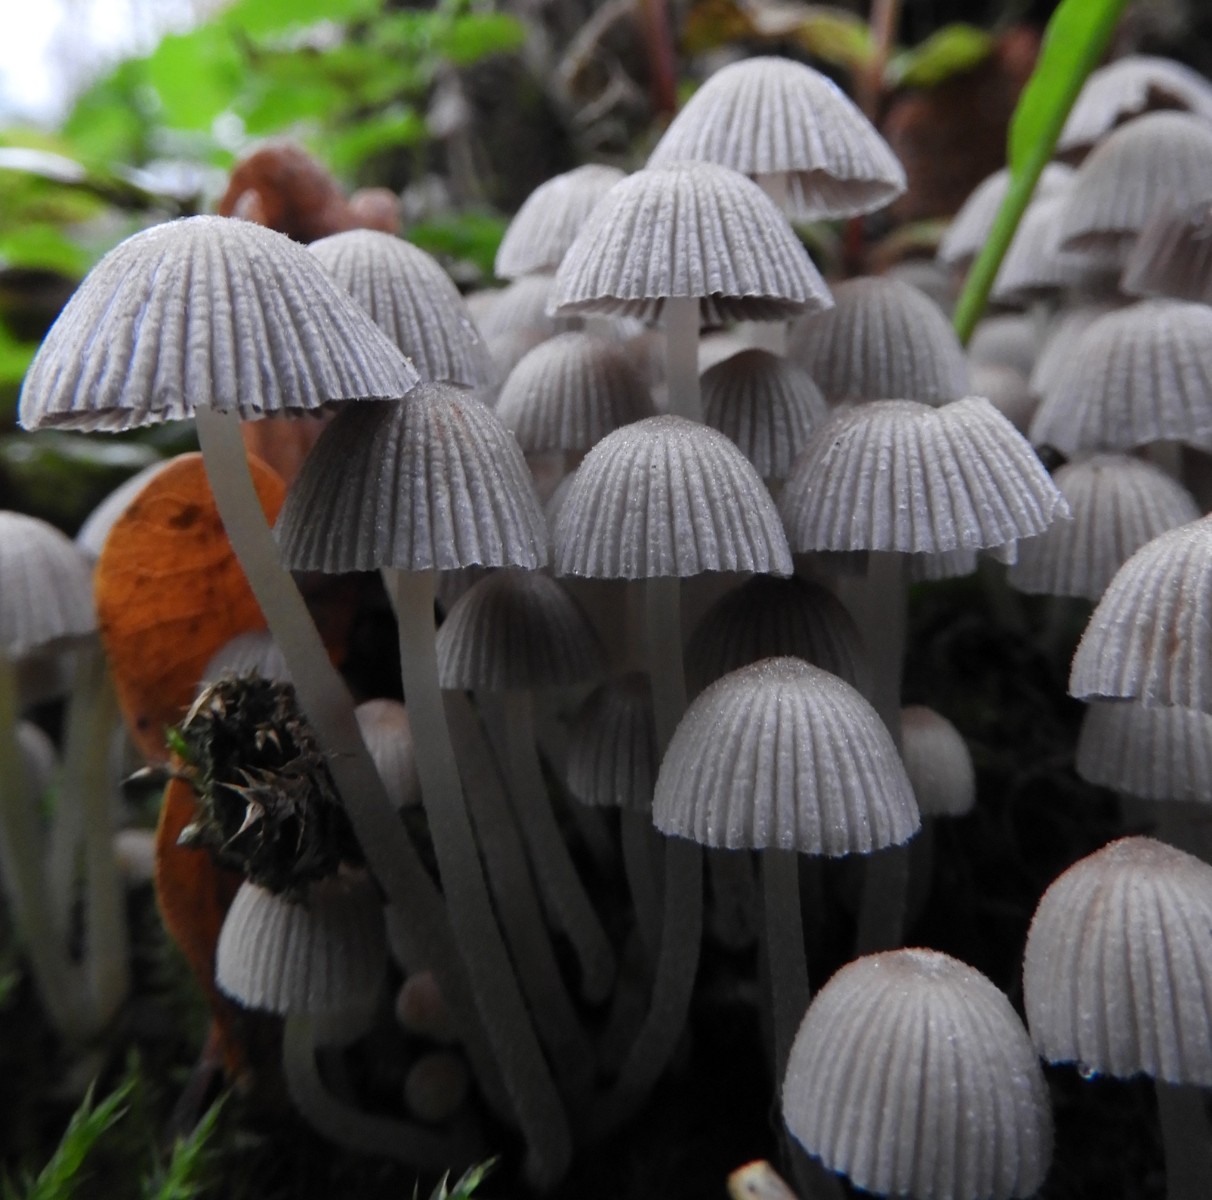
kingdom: Fungi
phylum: Basidiomycota
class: Agaricomycetes
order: Agaricales
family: Psathyrellaceae
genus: Coprinellus
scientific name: Coprinellus disseminatus
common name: bredsået blækhat
